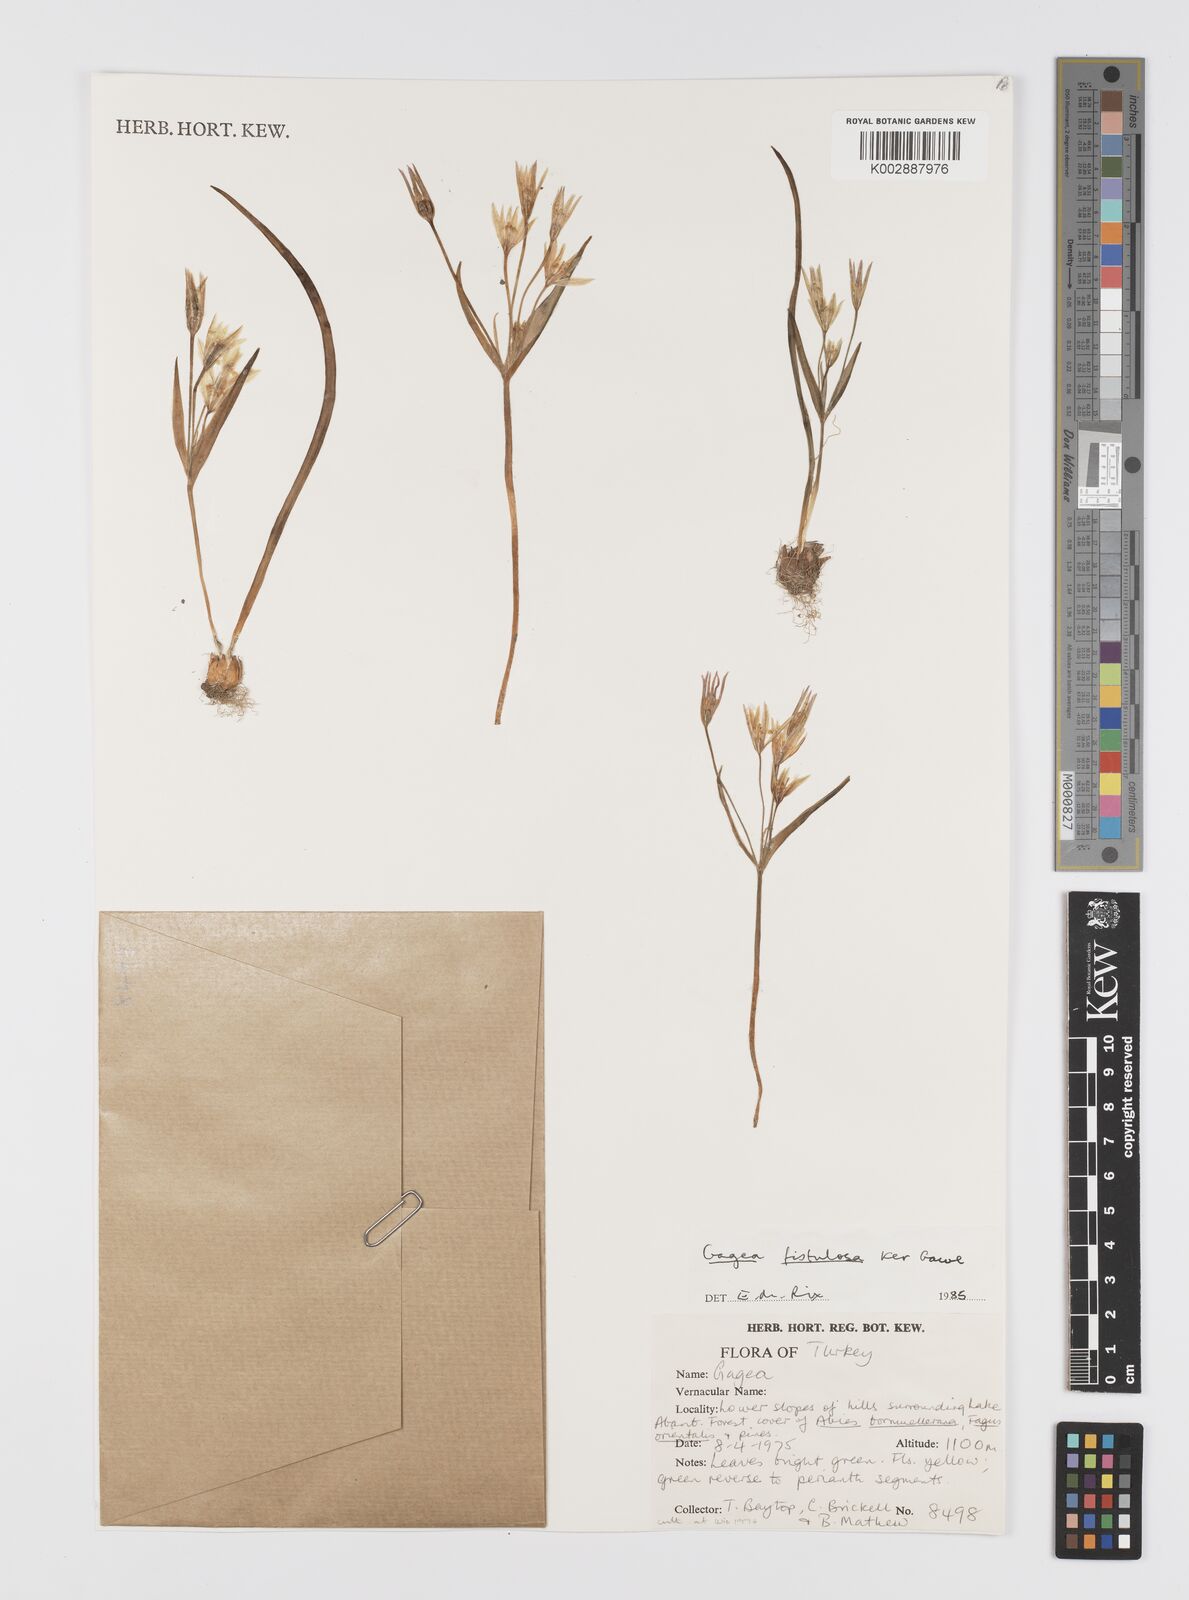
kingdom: Plantae
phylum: Tracheophyta
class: Liliopsida
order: Liliales
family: Liliaceae
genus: Gagea
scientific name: Gagea bohemica
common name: Early star-of-bethlehem
